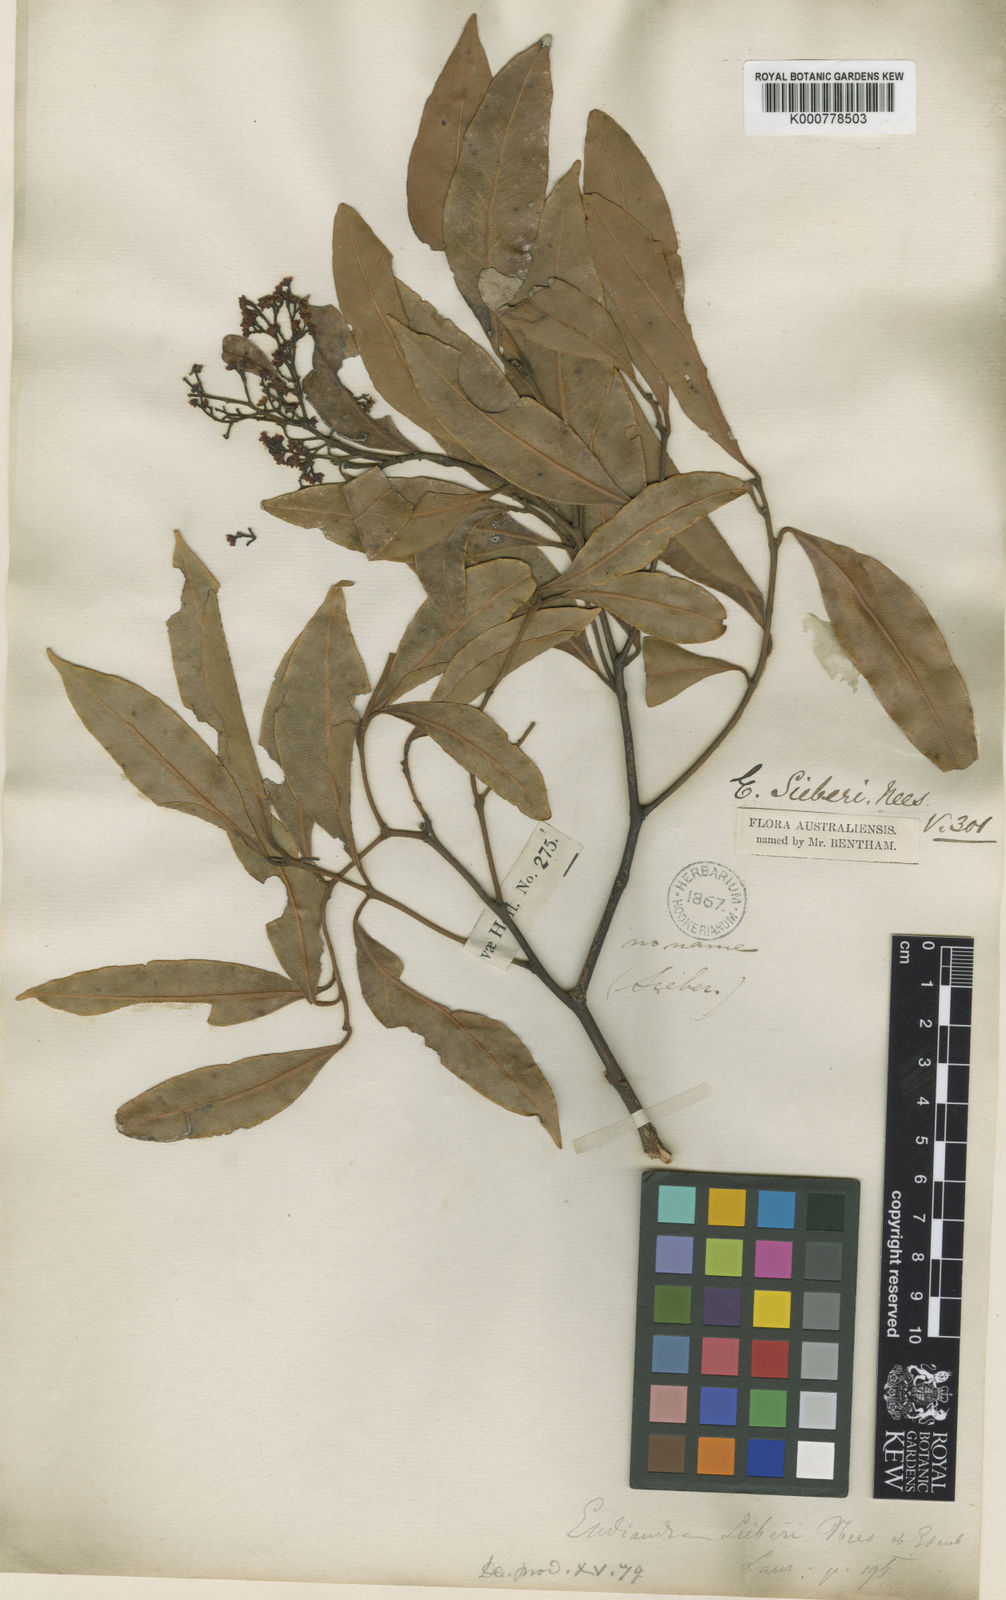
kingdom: Plantae
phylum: Tracheophyta
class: Magnoliopsida
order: Laurales
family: Lauraceae
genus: Endiandra
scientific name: Endiandra sieberi
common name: Corkwood
